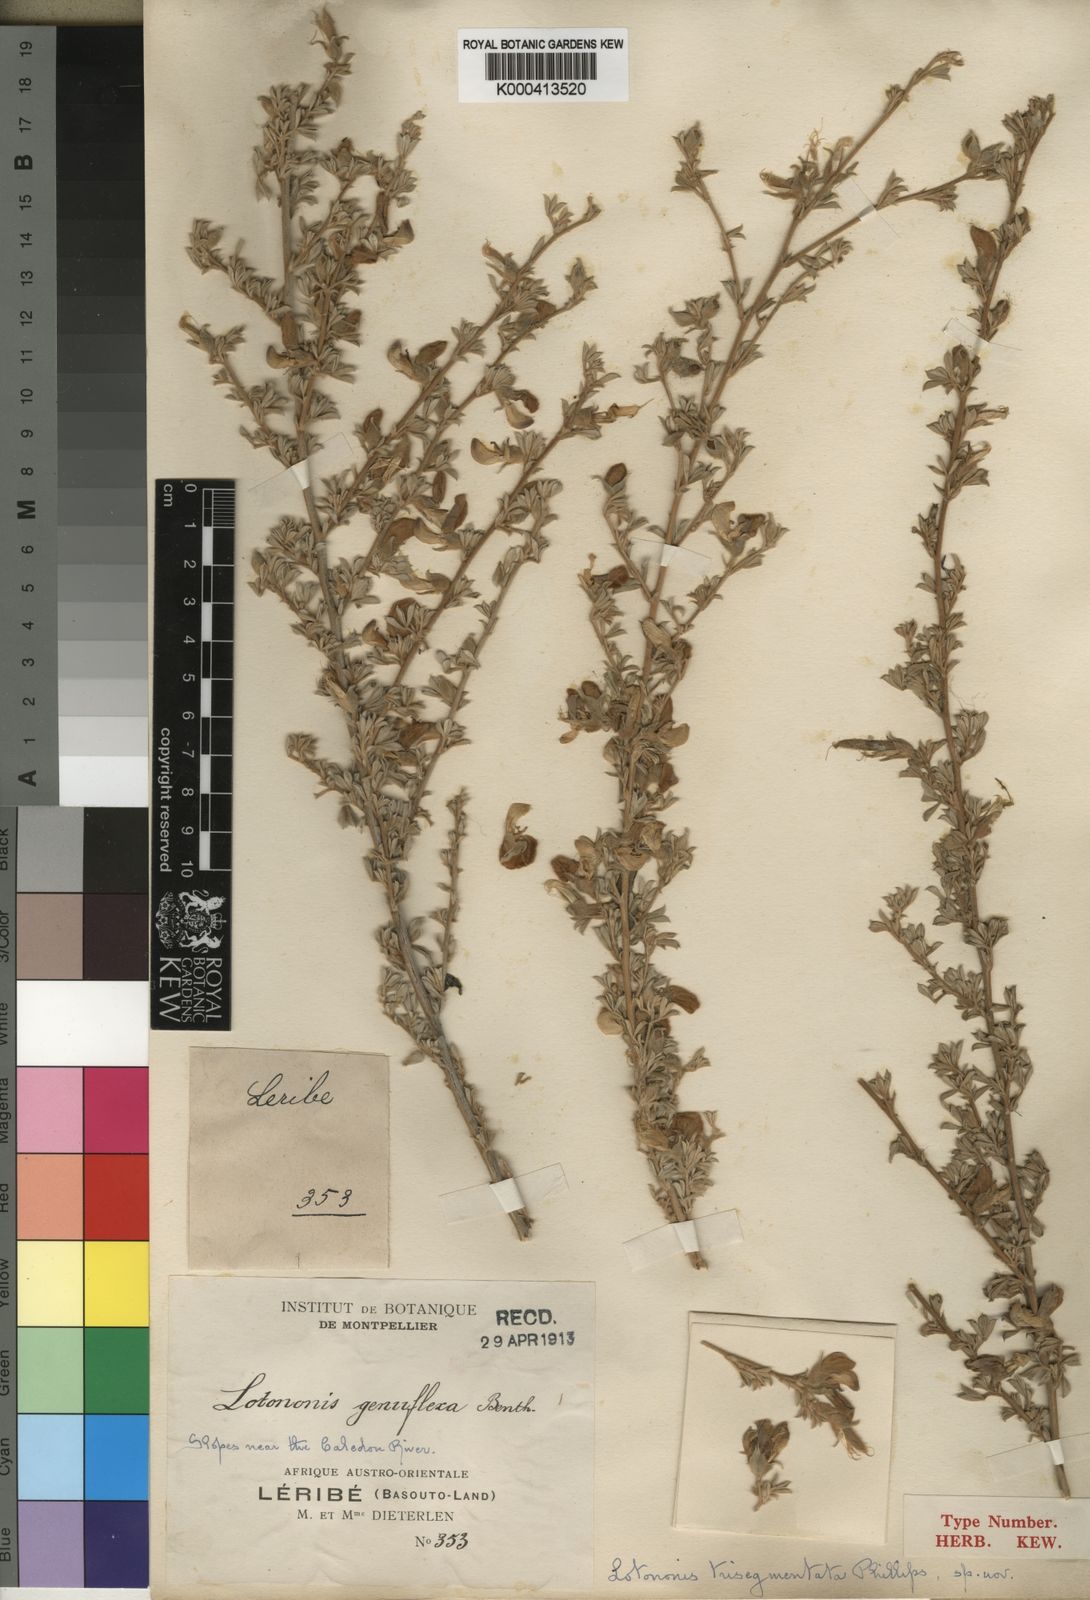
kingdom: Plantae
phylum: Tracheophyta
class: Magnoliopsida
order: Fabales
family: Fabaceae
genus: Lotononis
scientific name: Lotononis sericophylla
